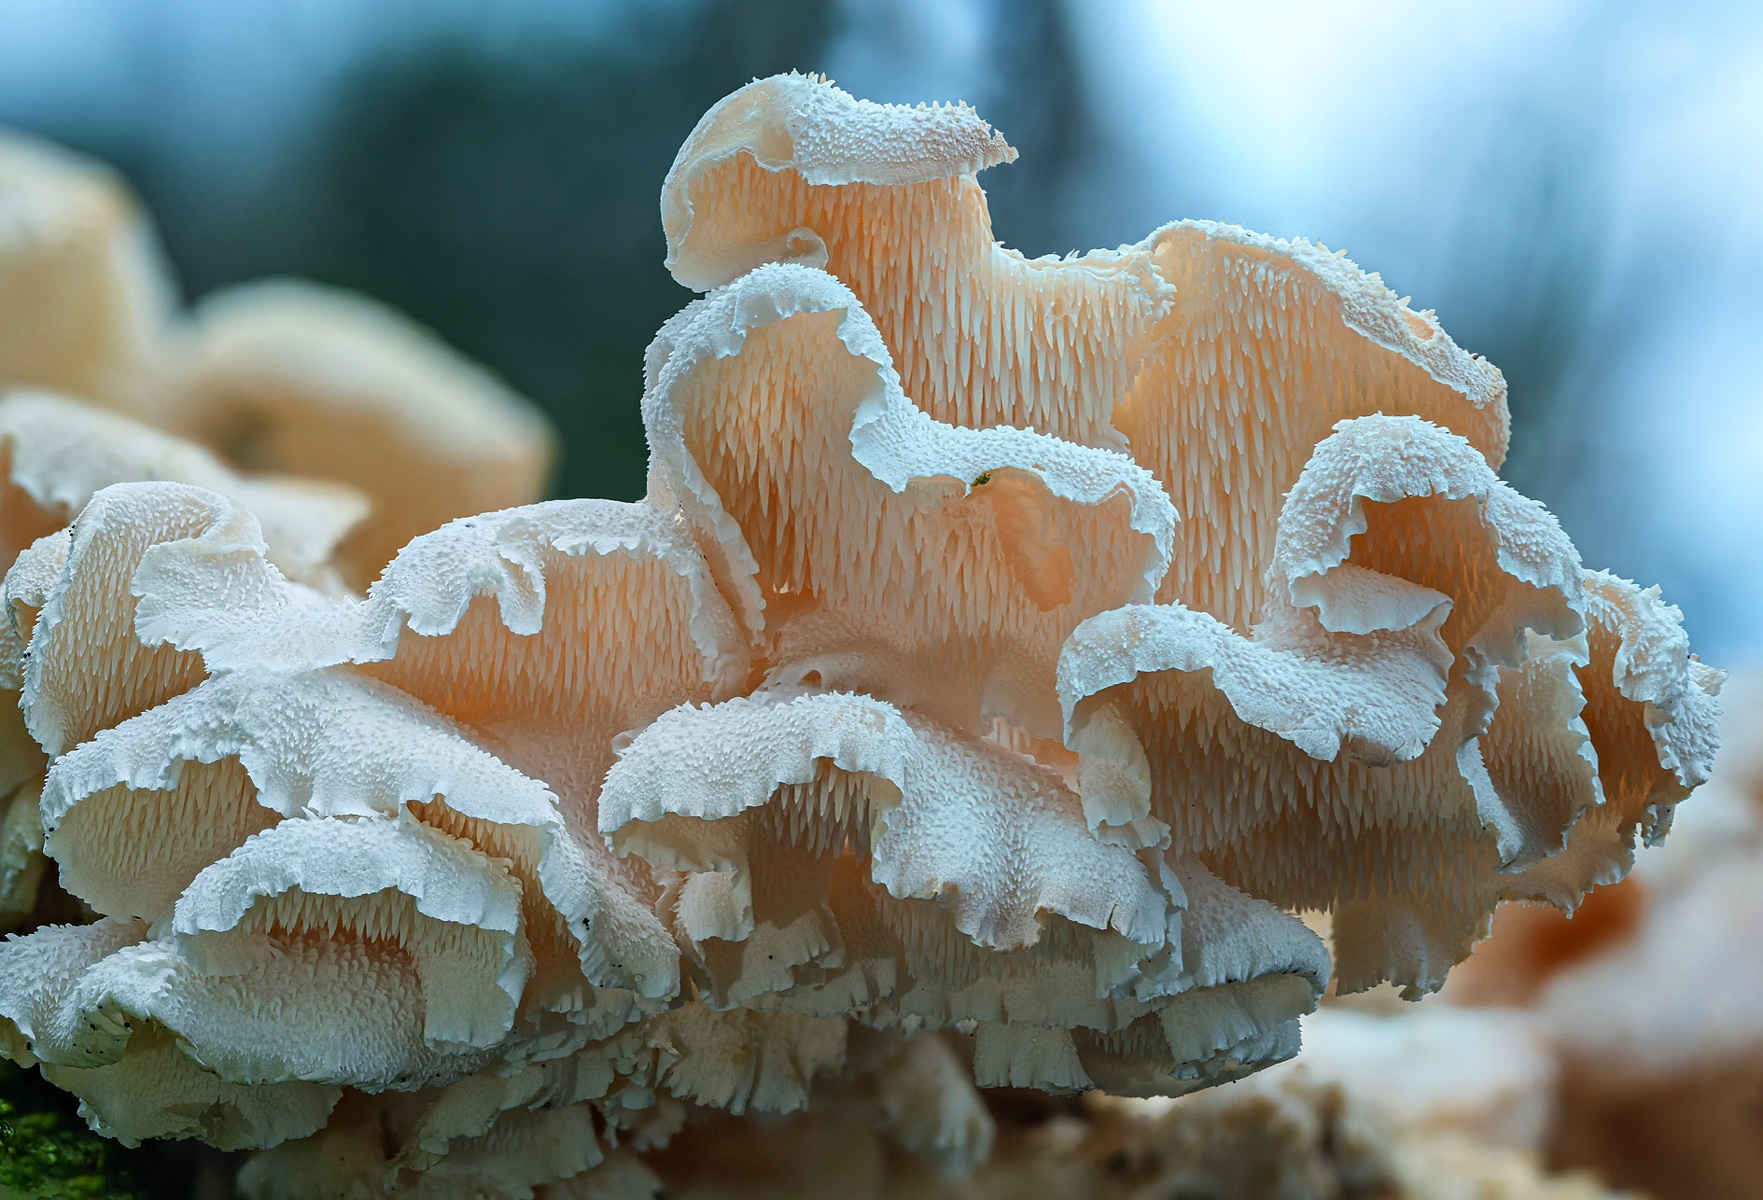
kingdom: Fungi
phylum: Basidiomycota
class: Agaricomycetes
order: Russulales
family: Hericiaceae
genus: Hericium
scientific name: Hericium cirrhatum
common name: børstepigsvamp
